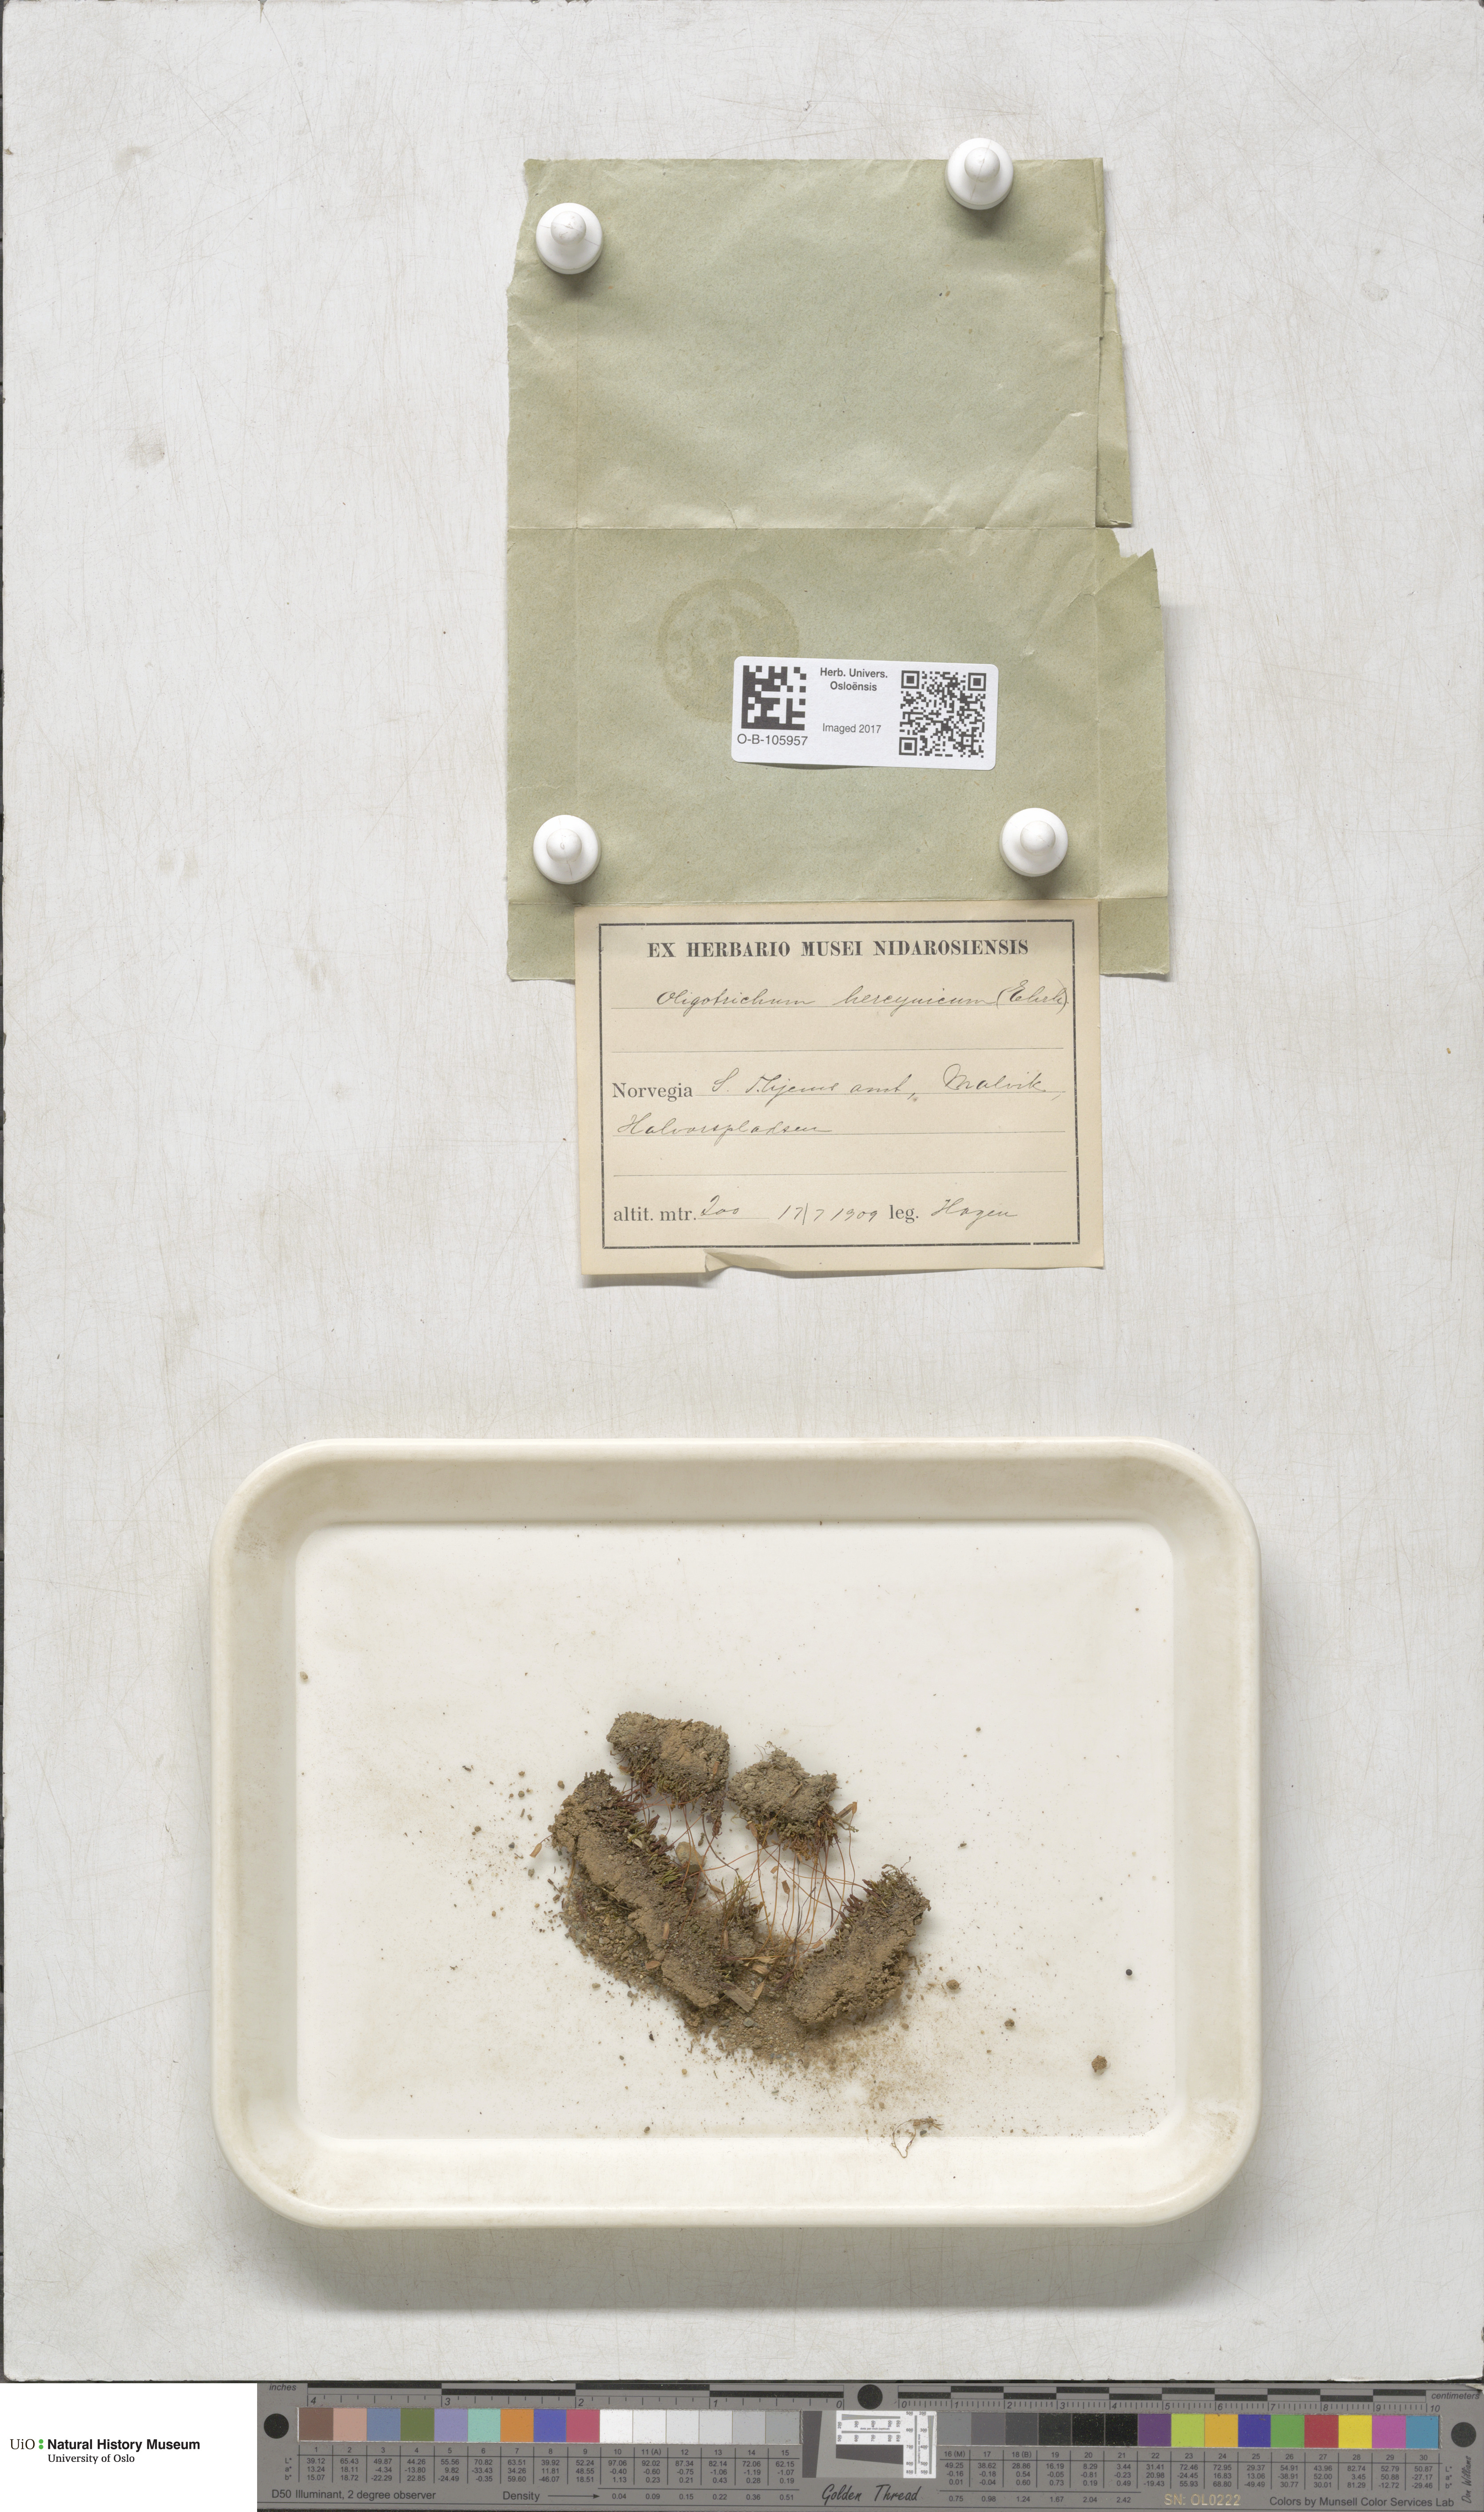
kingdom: Plantae
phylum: Bryophyta
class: Polytrichopsida
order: Polytrichales
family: Polytrichaceae
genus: Oligotrichum
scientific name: Oligotrichum hercynicum
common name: Hercynian hair moss
